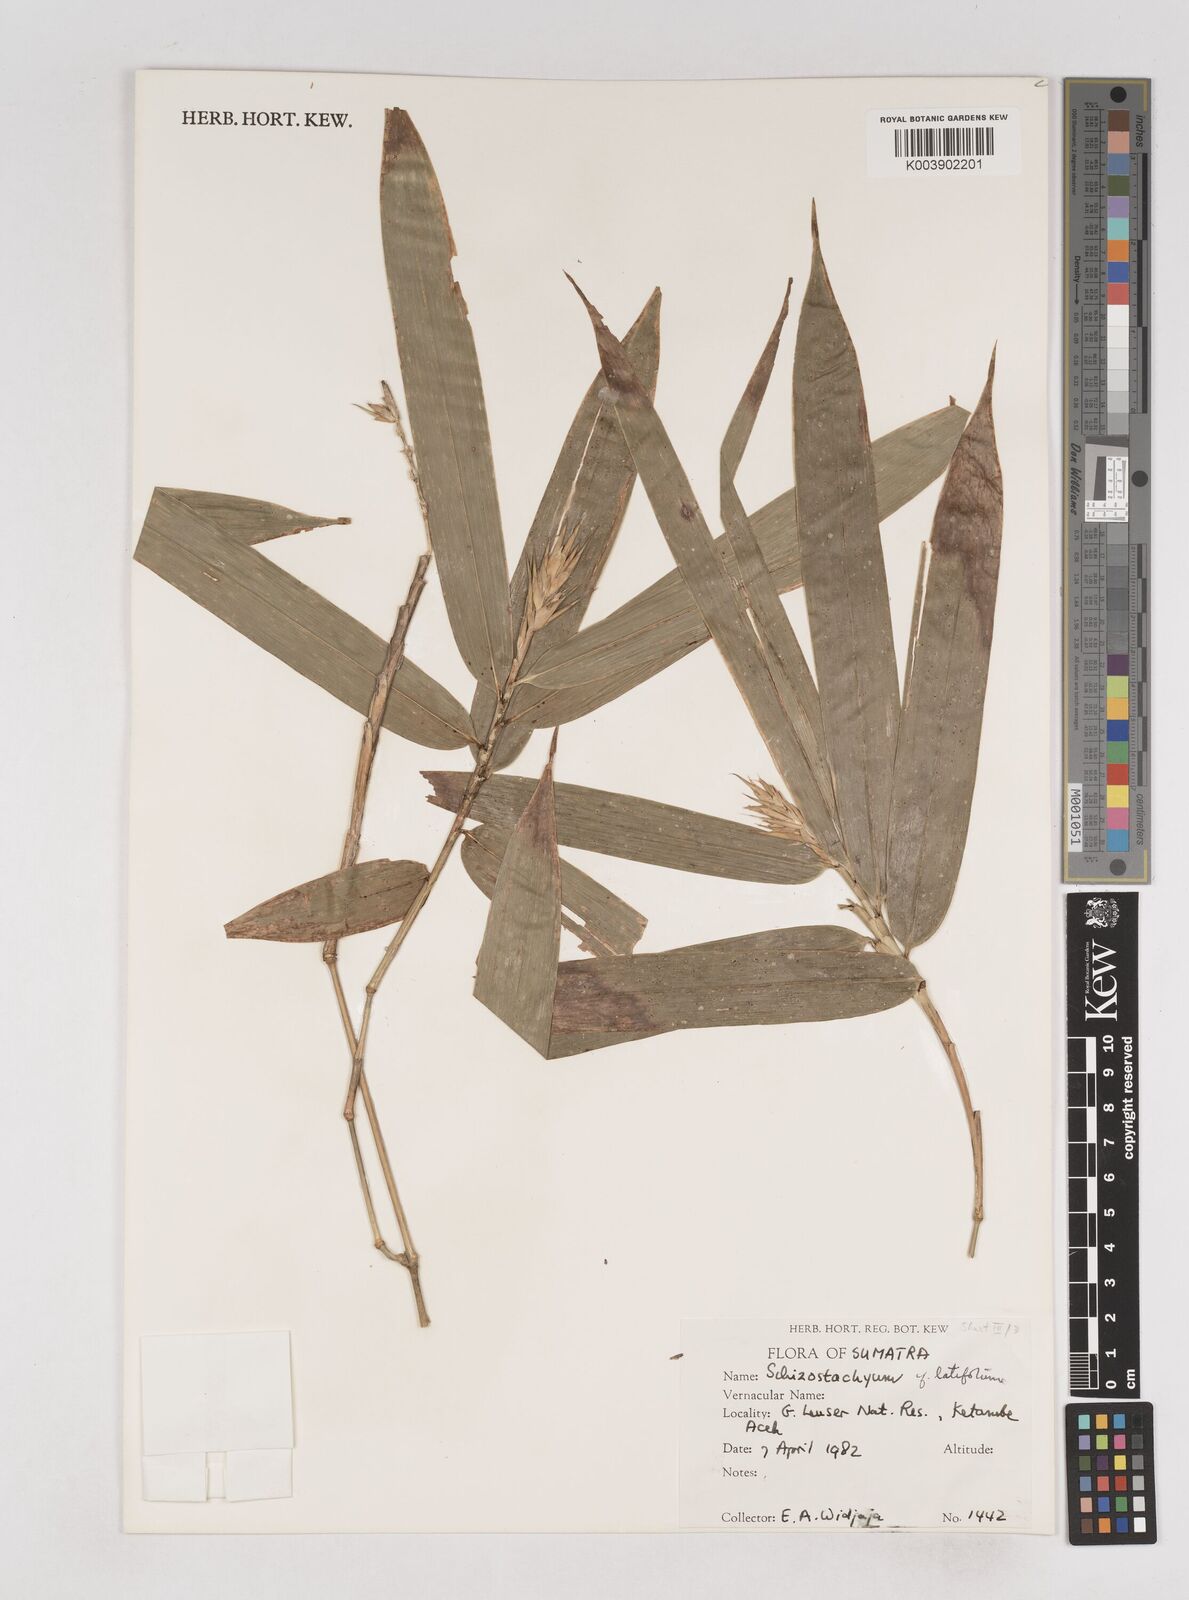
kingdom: Plantae
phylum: Tracheophyta
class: Liliopsida
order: Poales
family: Poaceae
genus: Schizostachyum
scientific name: Schizostachyum latifolium
